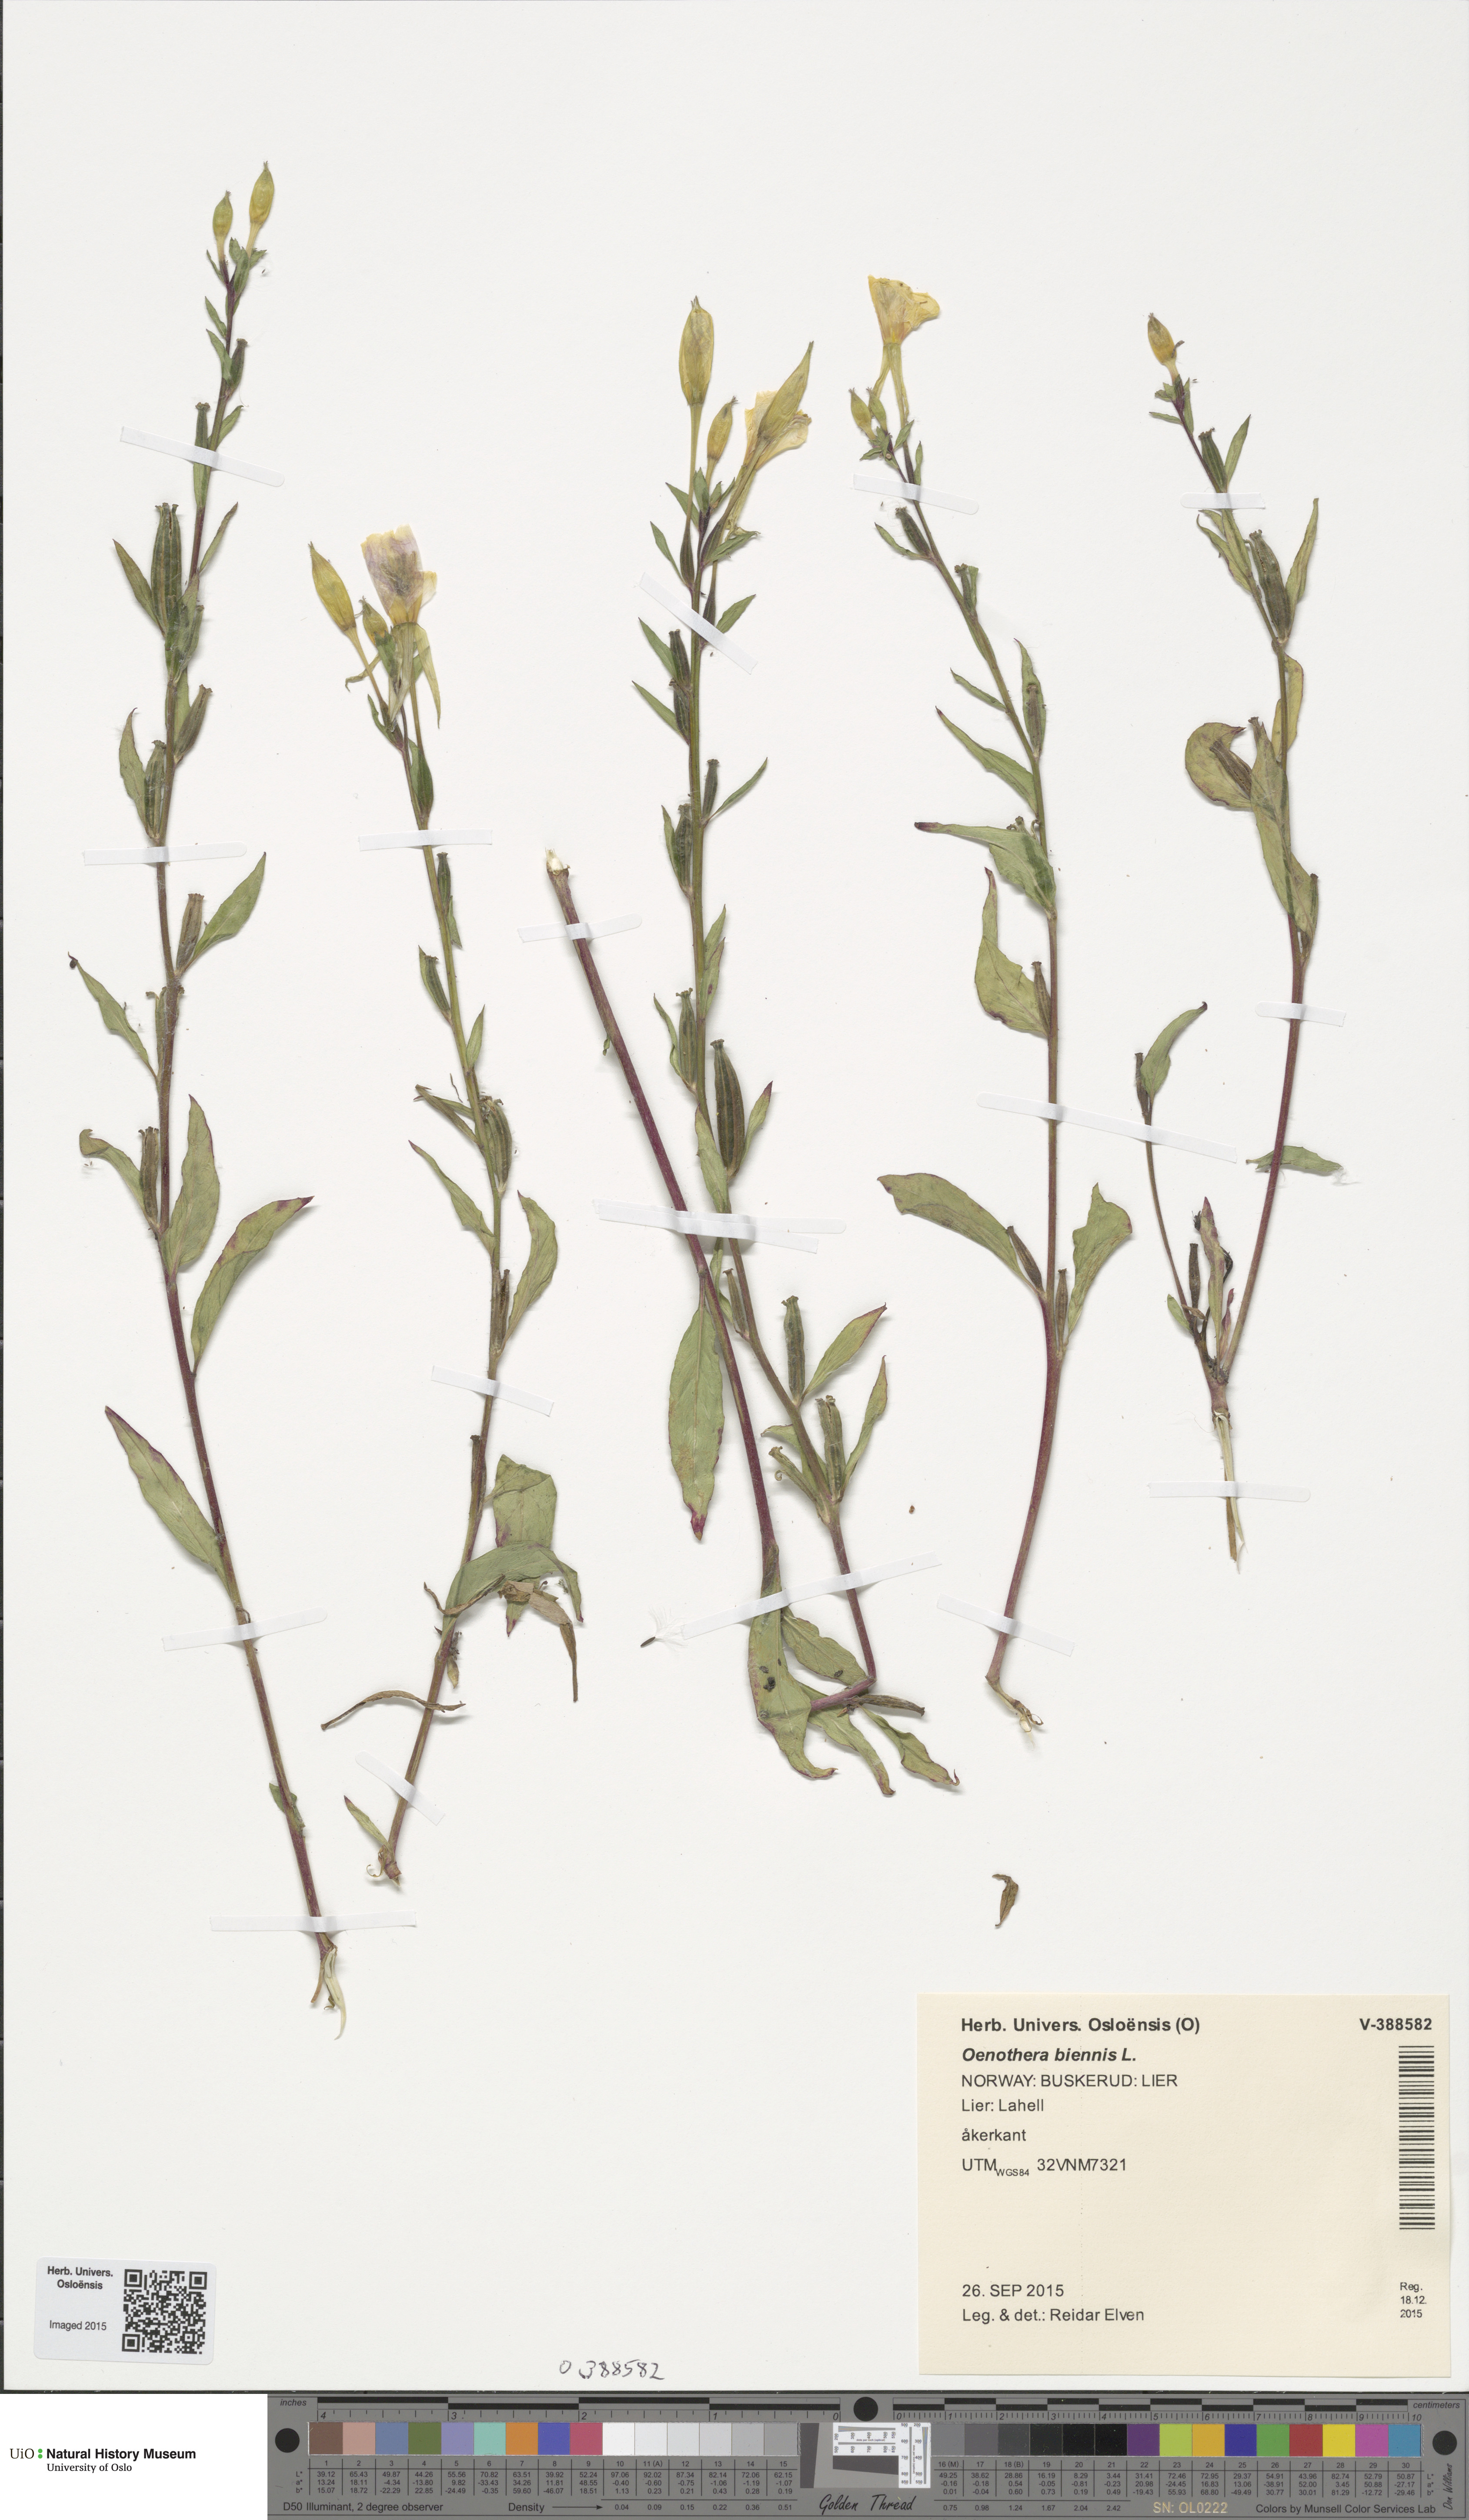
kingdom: Plantae
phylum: Tracheophyta
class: Magnoliopsida
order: Myrtales
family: Onagraceae
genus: Oenothera
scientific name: Oenothera biennis
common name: Common evening-primrose
